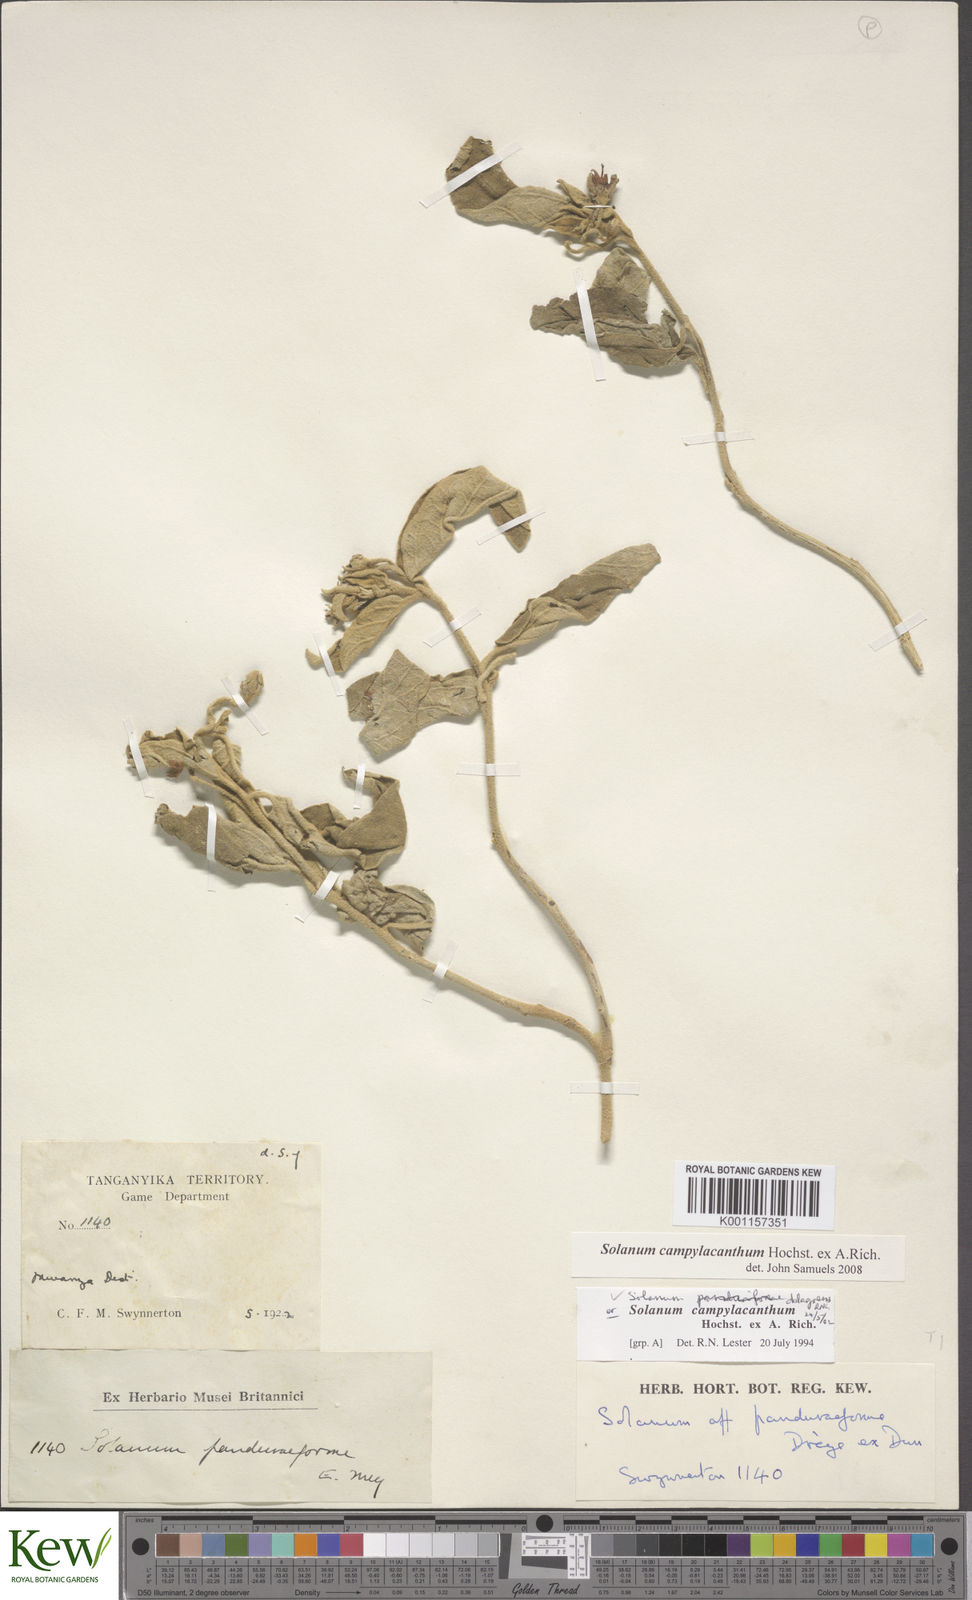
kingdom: Plantae
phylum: Tracheophyta
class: Magnoliopsida
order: Solanales
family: Solanaceae
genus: Solanum
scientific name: Solanum campylacanthum
